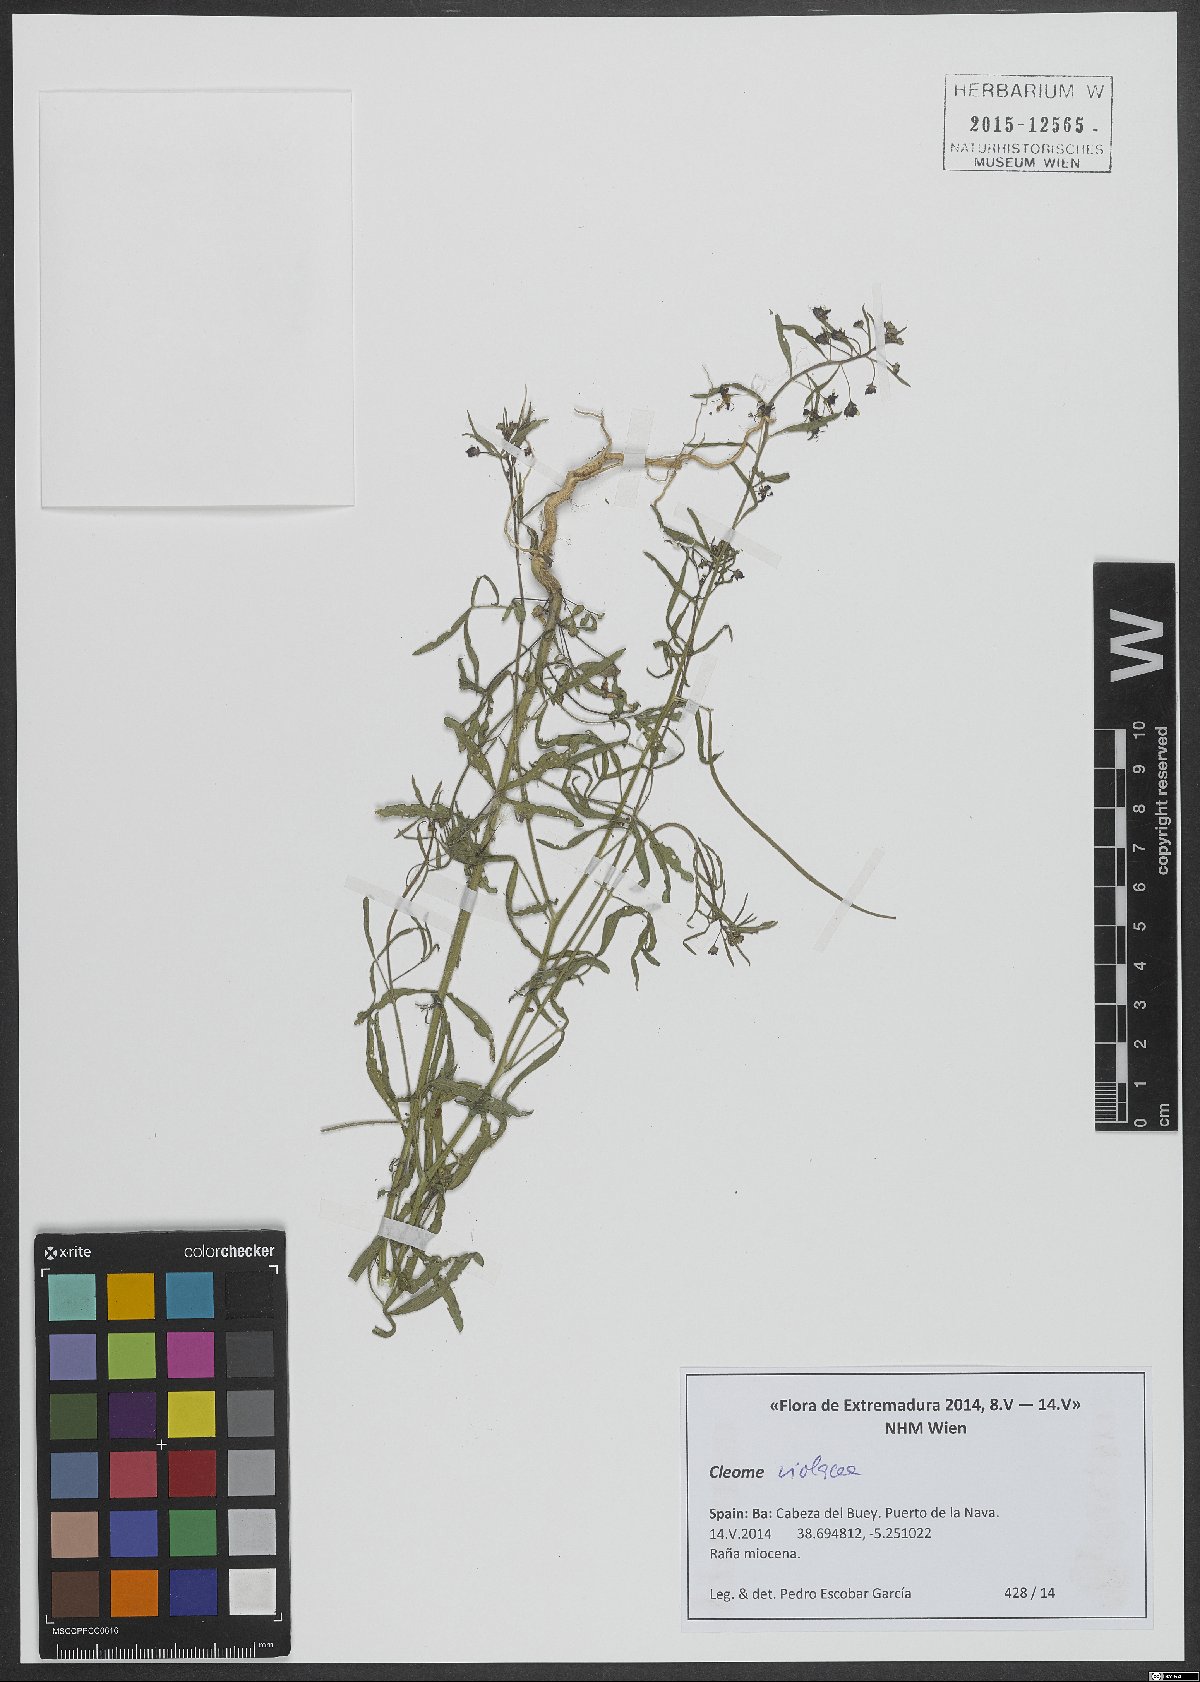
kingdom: Plantae
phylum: Tracheophyta
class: Magnoliopsida
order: Brassicales
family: Cleomaceae
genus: Cleome
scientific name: Cleome violacea
